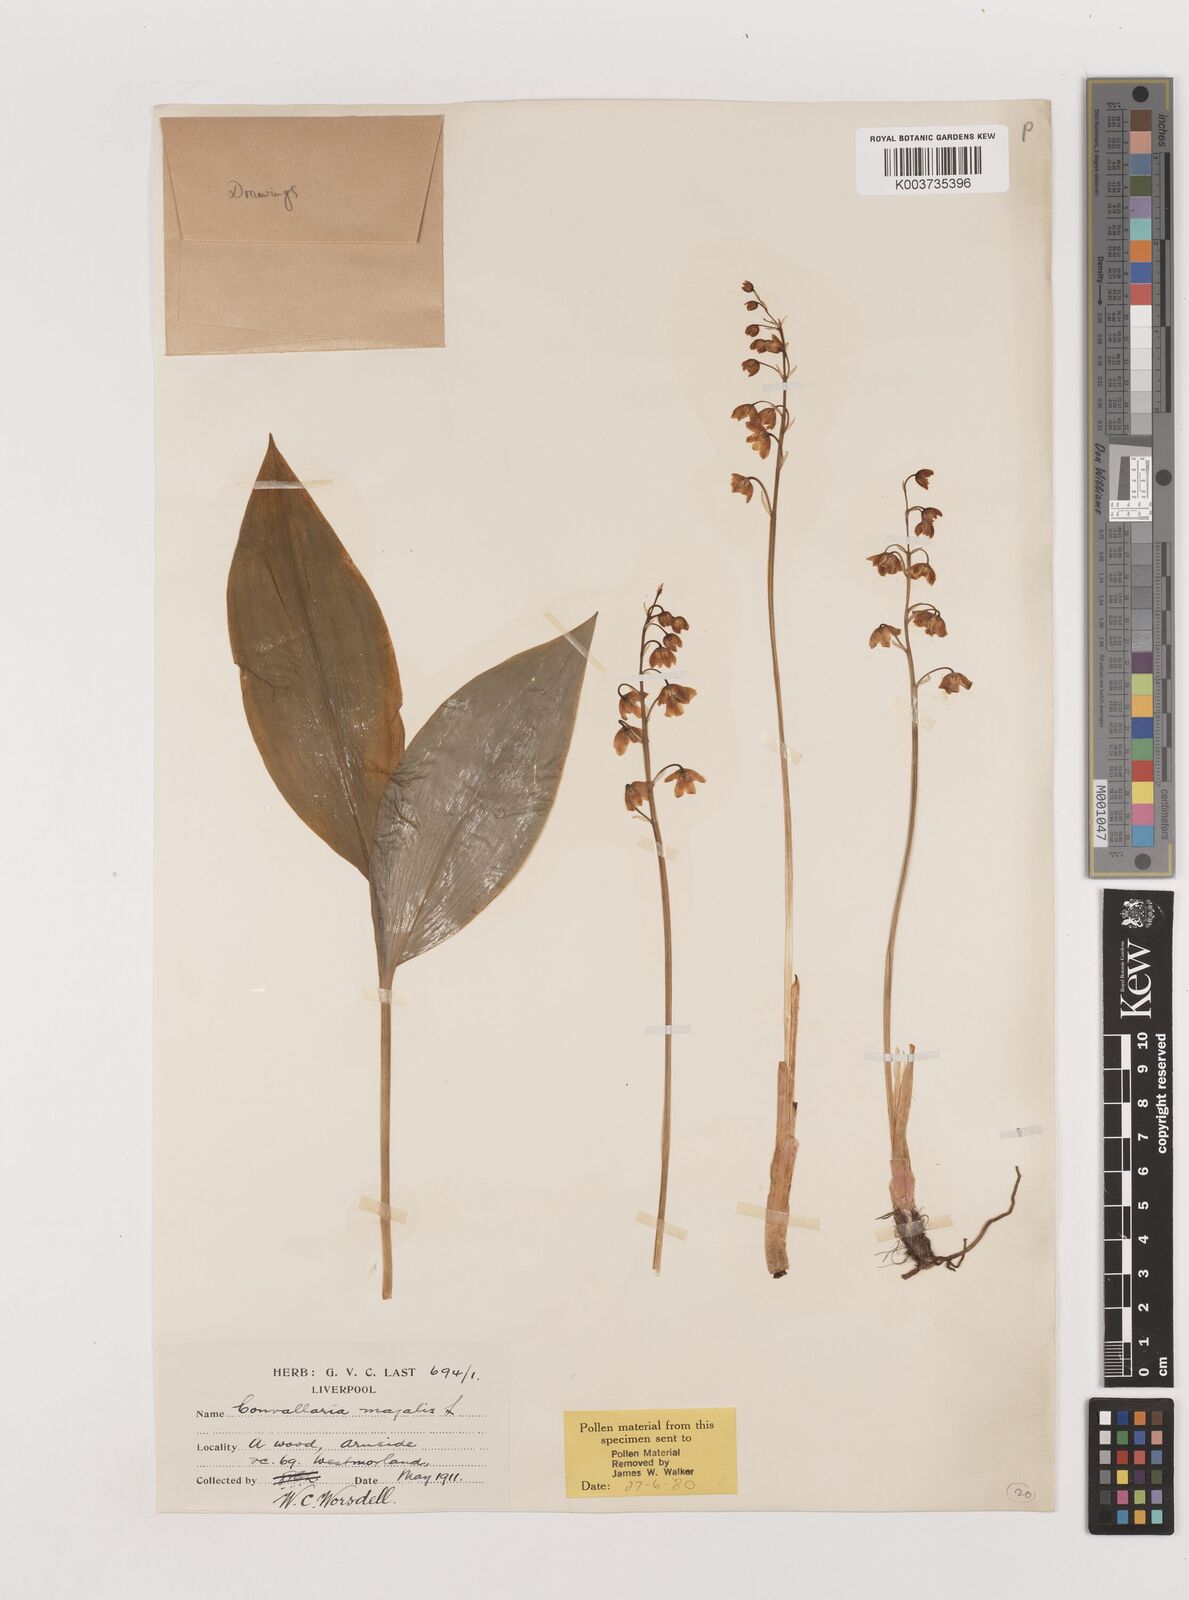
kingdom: Plantae
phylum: Tracheophyta
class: Liliopsida
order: Asparagales
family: Asparagaceae
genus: Convallaria
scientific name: Convallaria majalis
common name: Lily-of-the-valley
